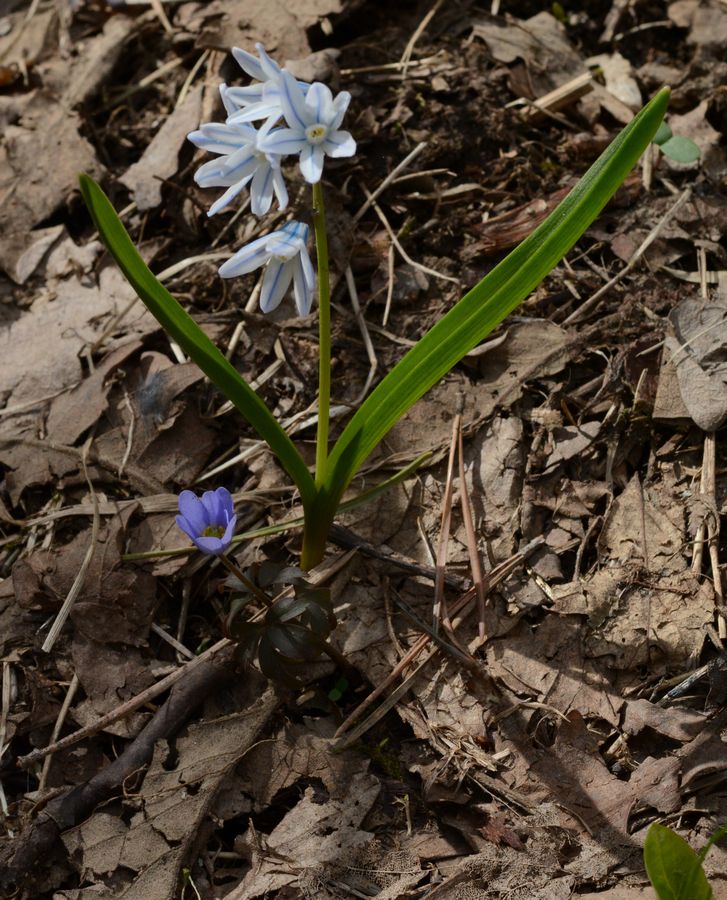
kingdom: Plantae
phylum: Tracheophyta
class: Liliopsida
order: Asparagales
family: Asparagaceae
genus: Puschkinia
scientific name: Puschkinia scilloides
